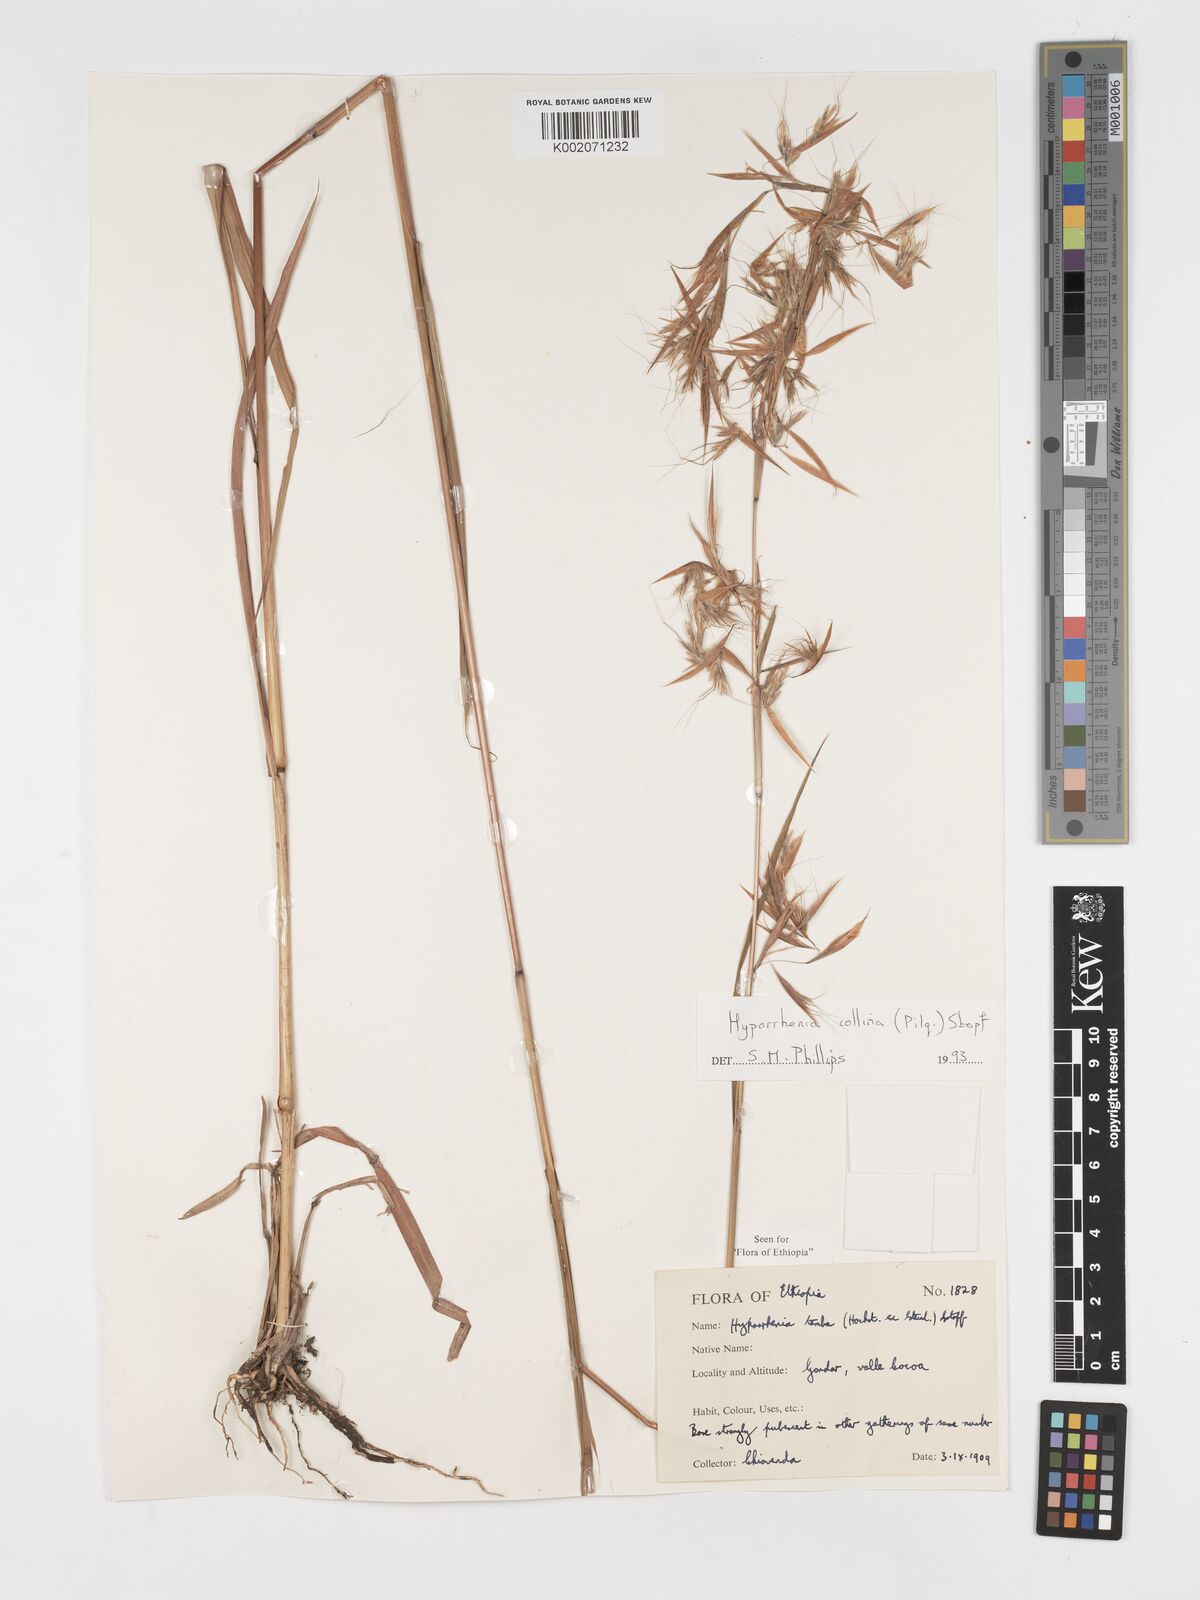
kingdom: Plantae
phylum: Tracheophyta
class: Liliopsida
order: Poales
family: Poaceae
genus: Hyparrhenia
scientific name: Hyparrhenia collina
